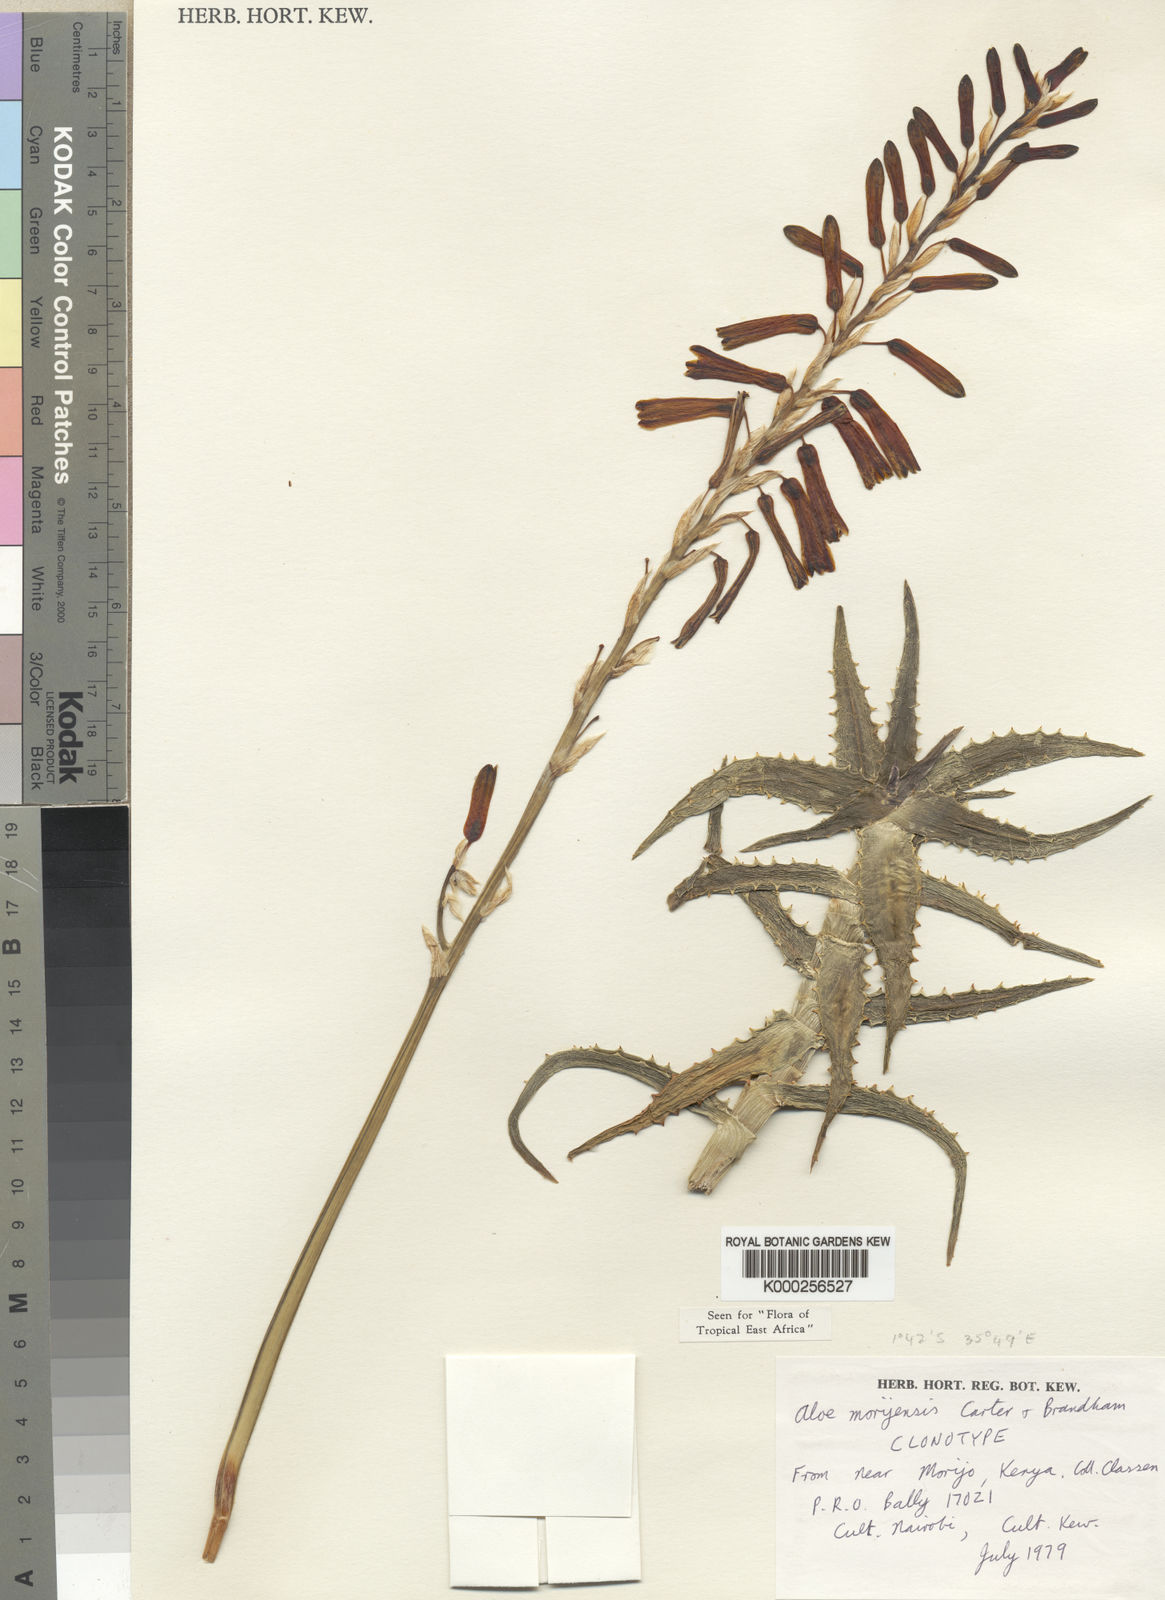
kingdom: Plantae
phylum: Tracheophyta
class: Liliopsida
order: Asparagales
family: Asphodelaceae
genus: Aloe
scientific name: Aloe morijensis
